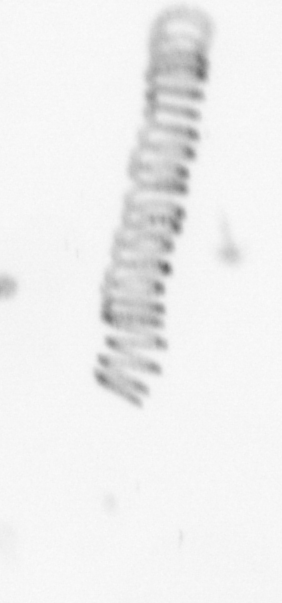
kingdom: Chromista
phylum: Ochrophyta
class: Bacillariophyceae
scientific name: Bacillariophyceae
